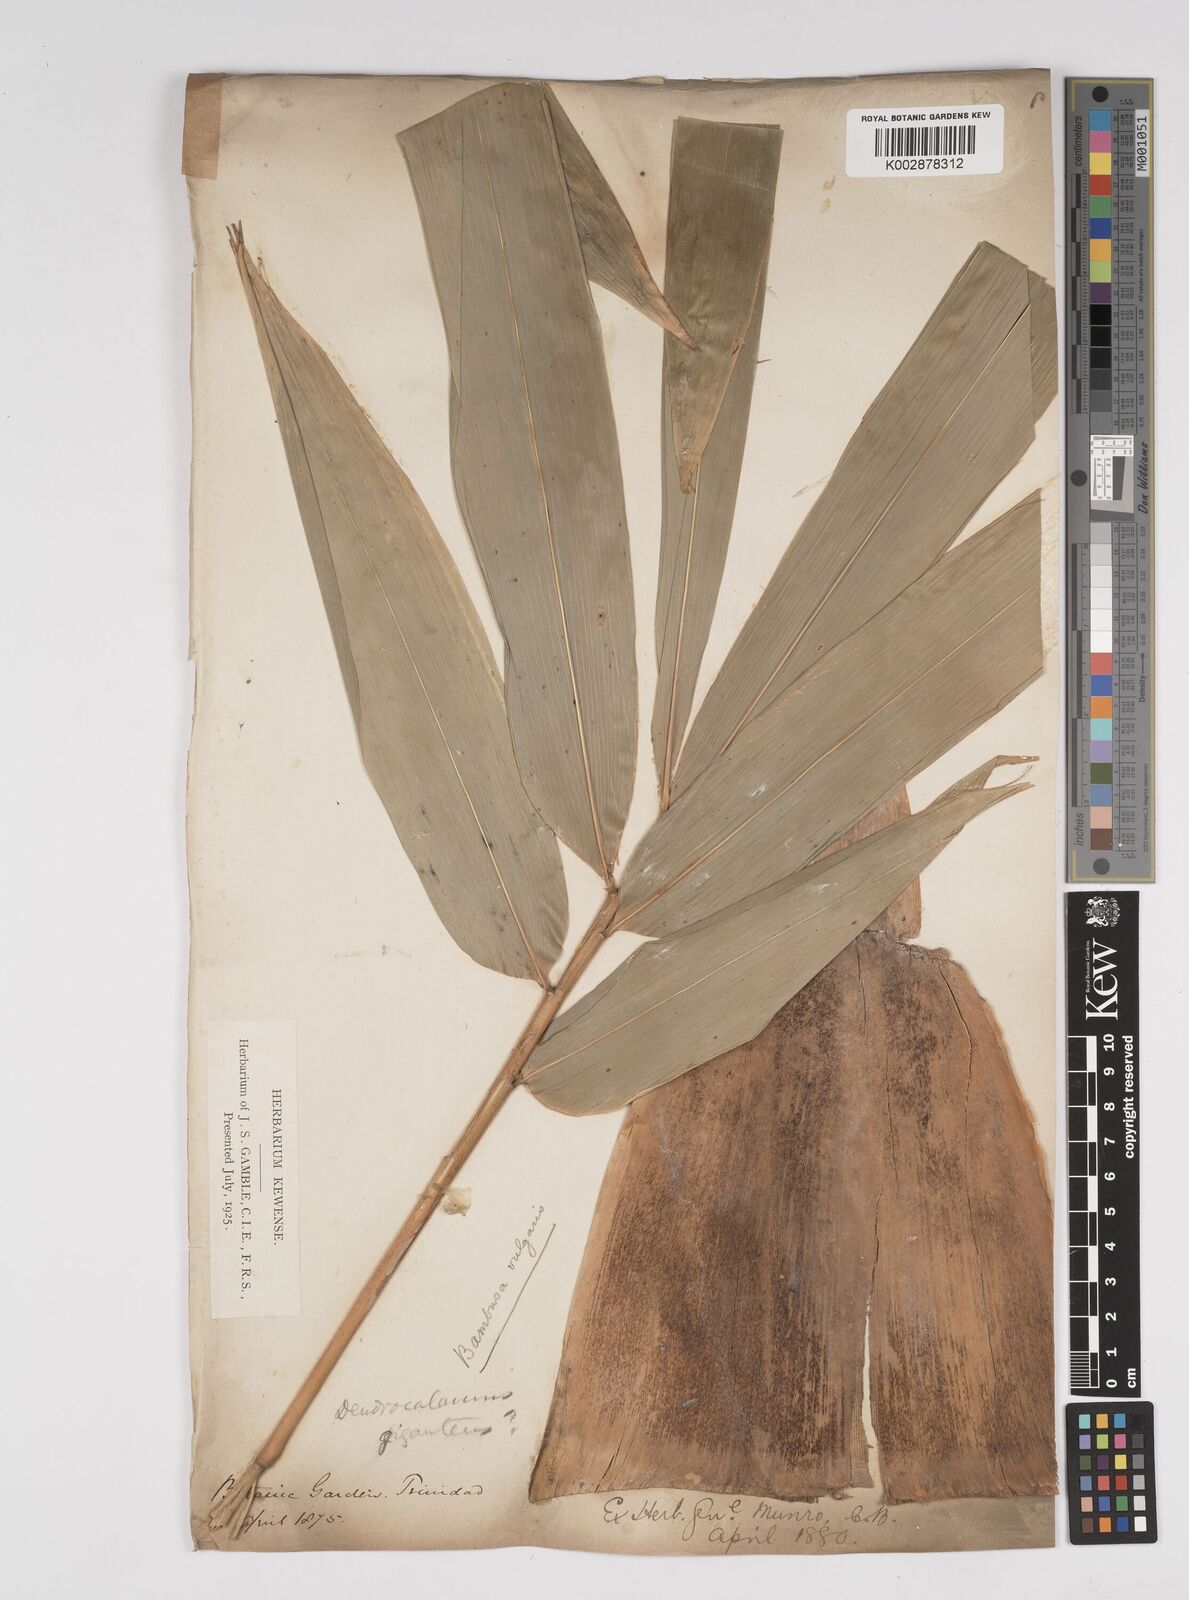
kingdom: Plantae
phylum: Tracheophyta
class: Liliopsida
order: Poales
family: Poaceae
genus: Bambusa
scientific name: Bambusa vulgaris
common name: Common bamboo
